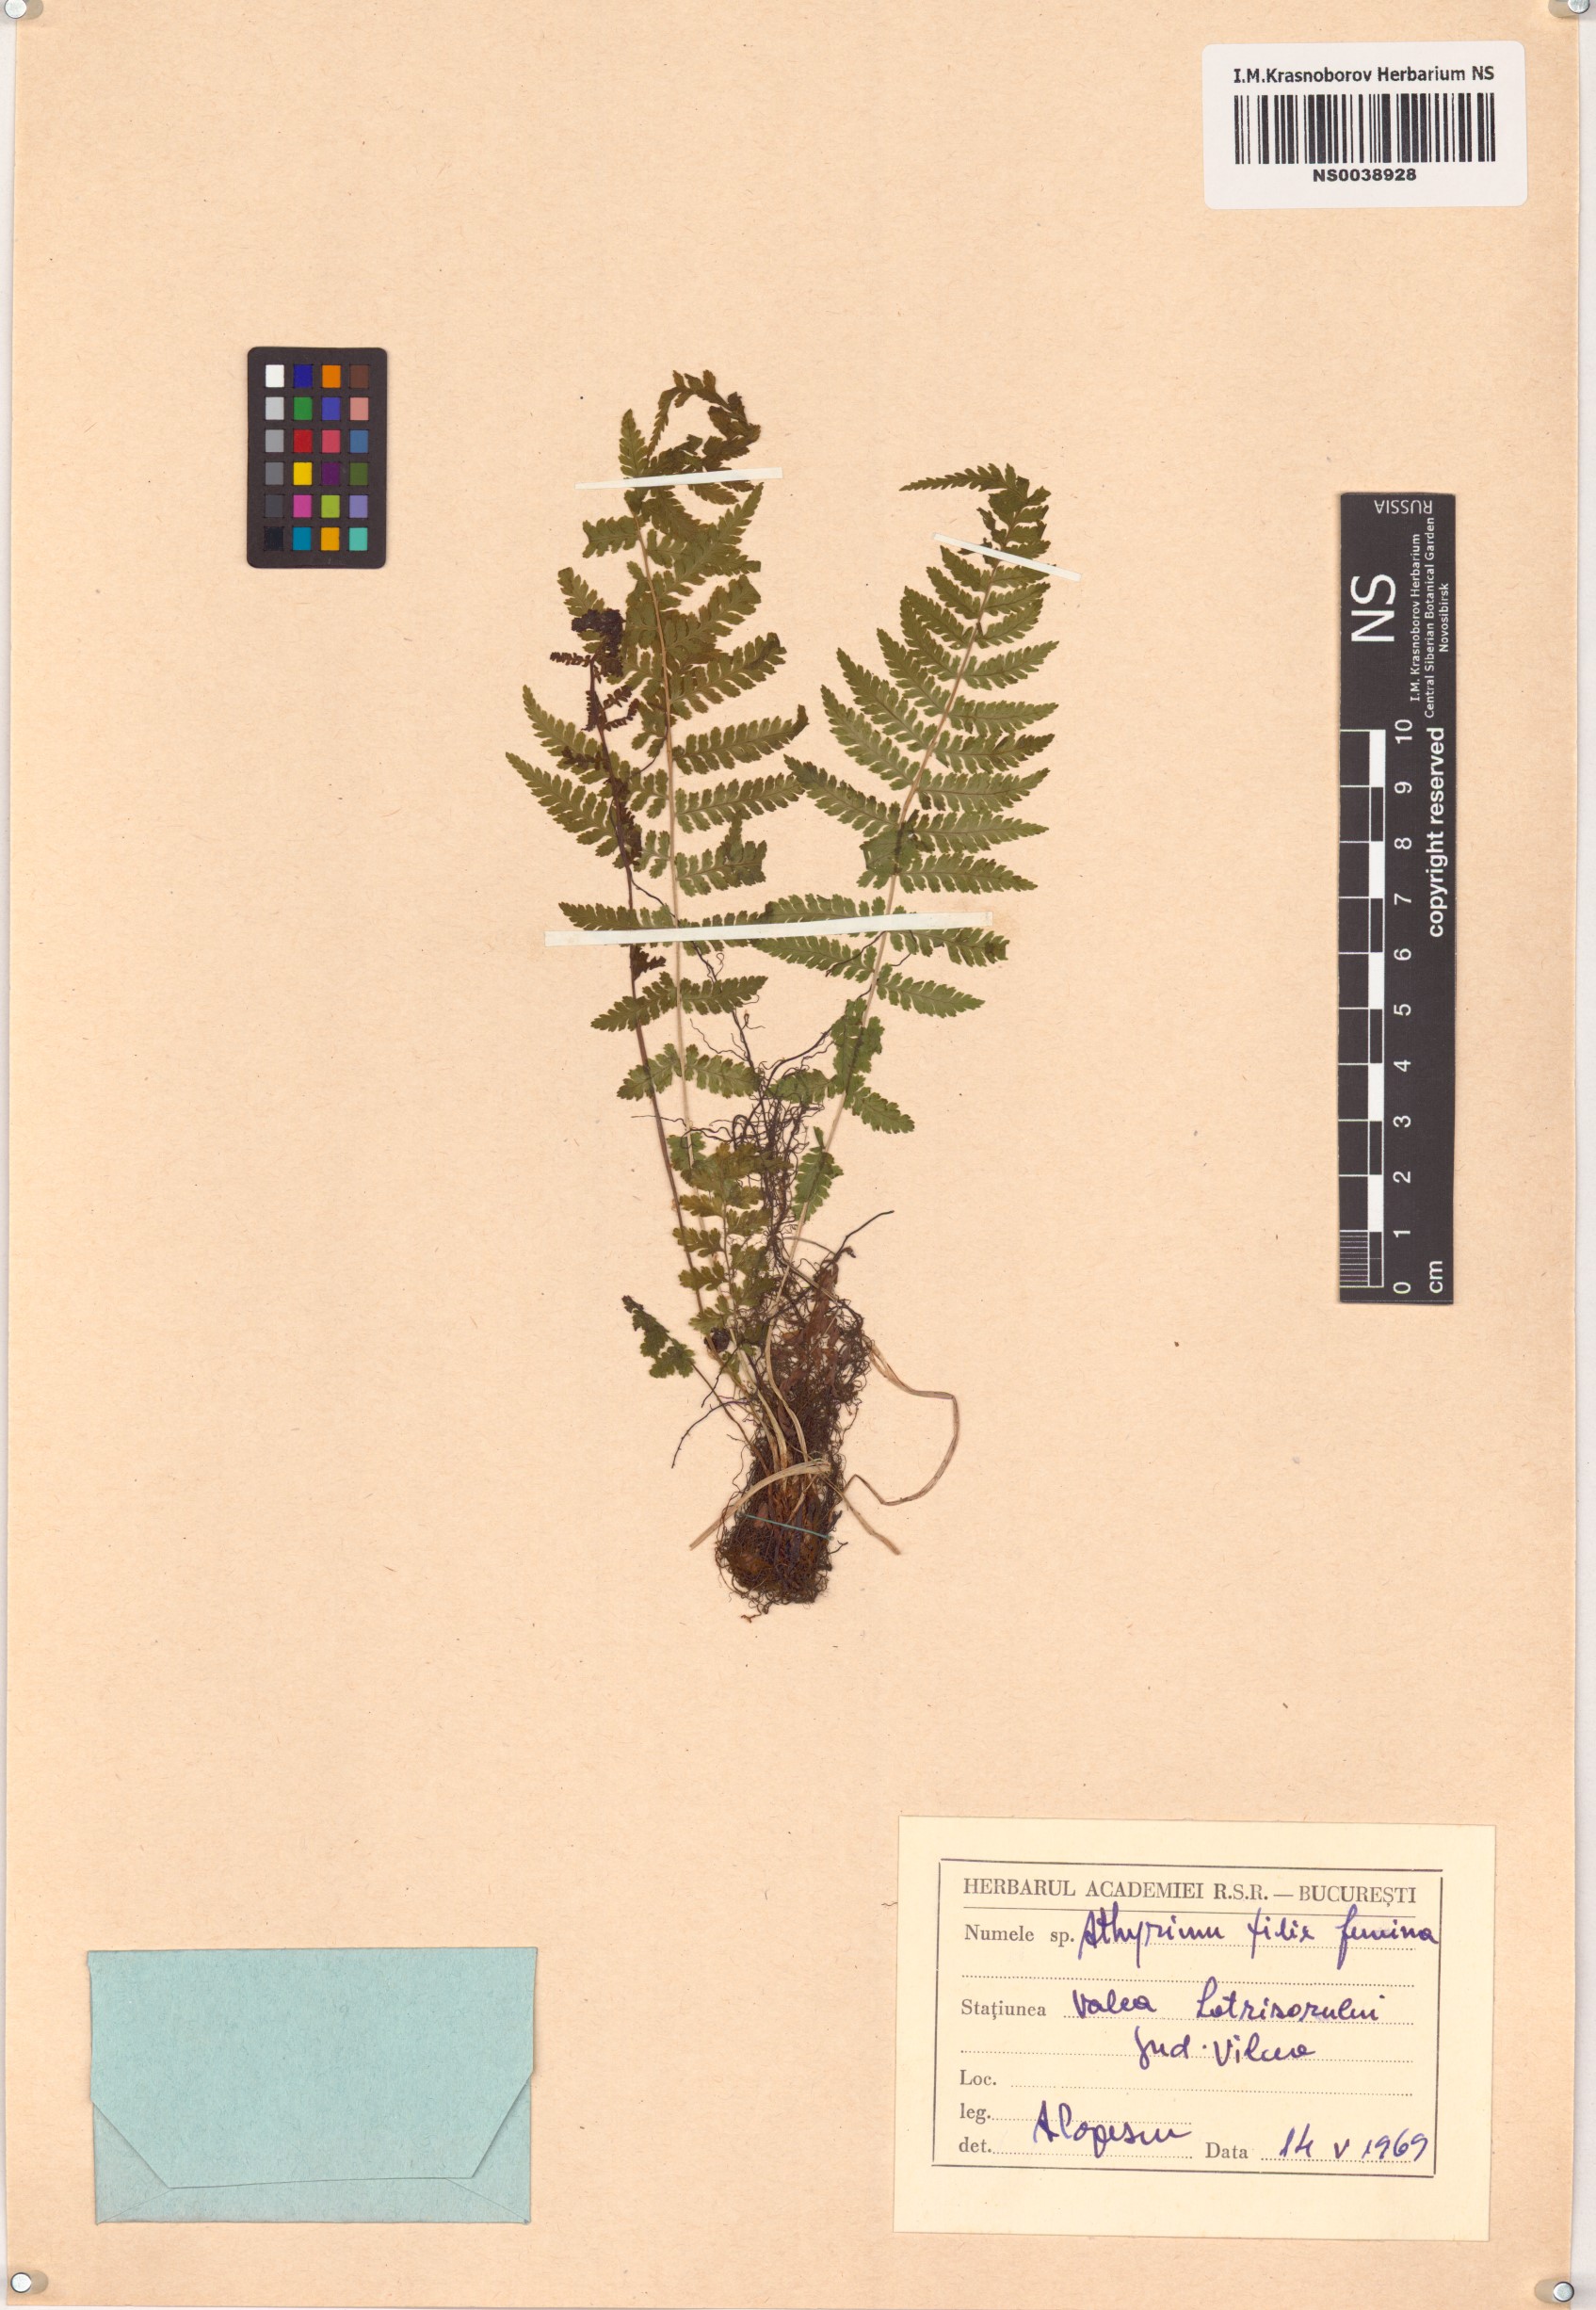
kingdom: Plantae
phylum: Tracheophyta
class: Polypodiopsida
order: Polypodiales
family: Athyriaceae
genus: Athyrium
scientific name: Athyrium filix-femina
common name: Lady fern
